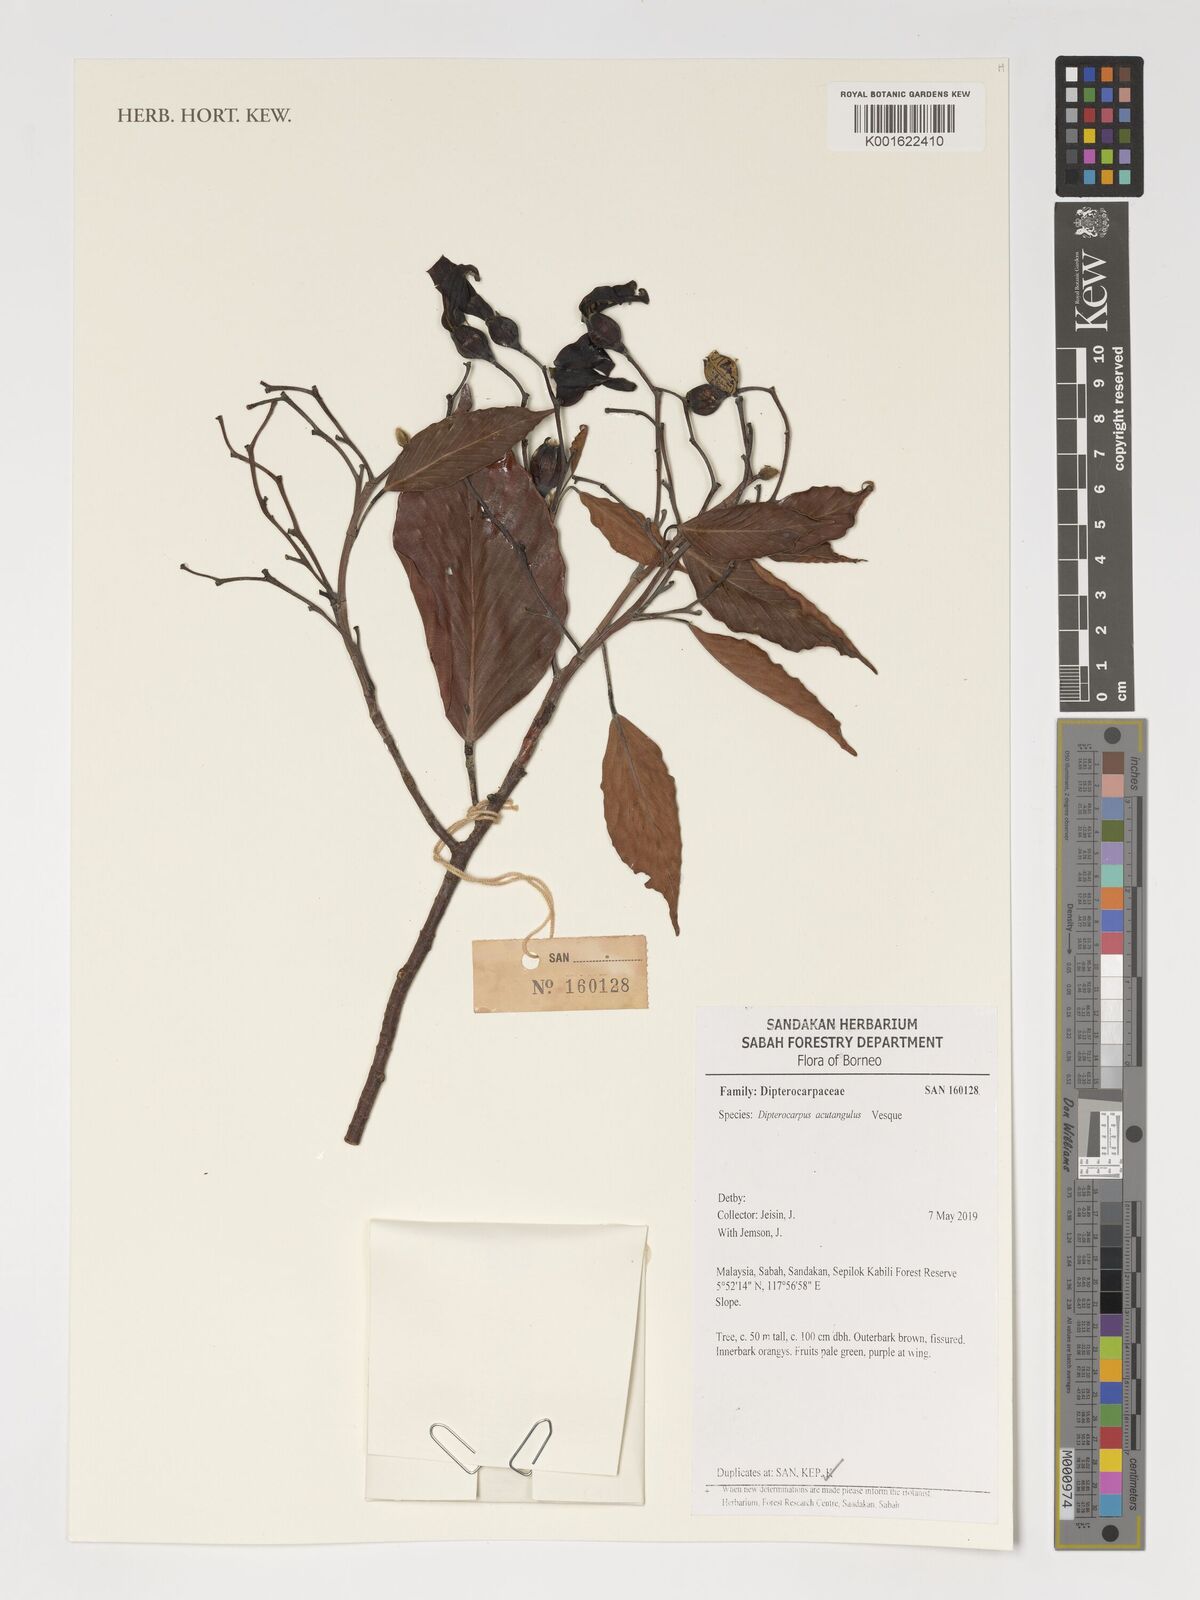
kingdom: Plantae
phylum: Tracheophyta
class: Magnoliopsida
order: Malvales
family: Dipterocarpaceae
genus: Dipterocarpus
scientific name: Dipterocarpus acutangulus
